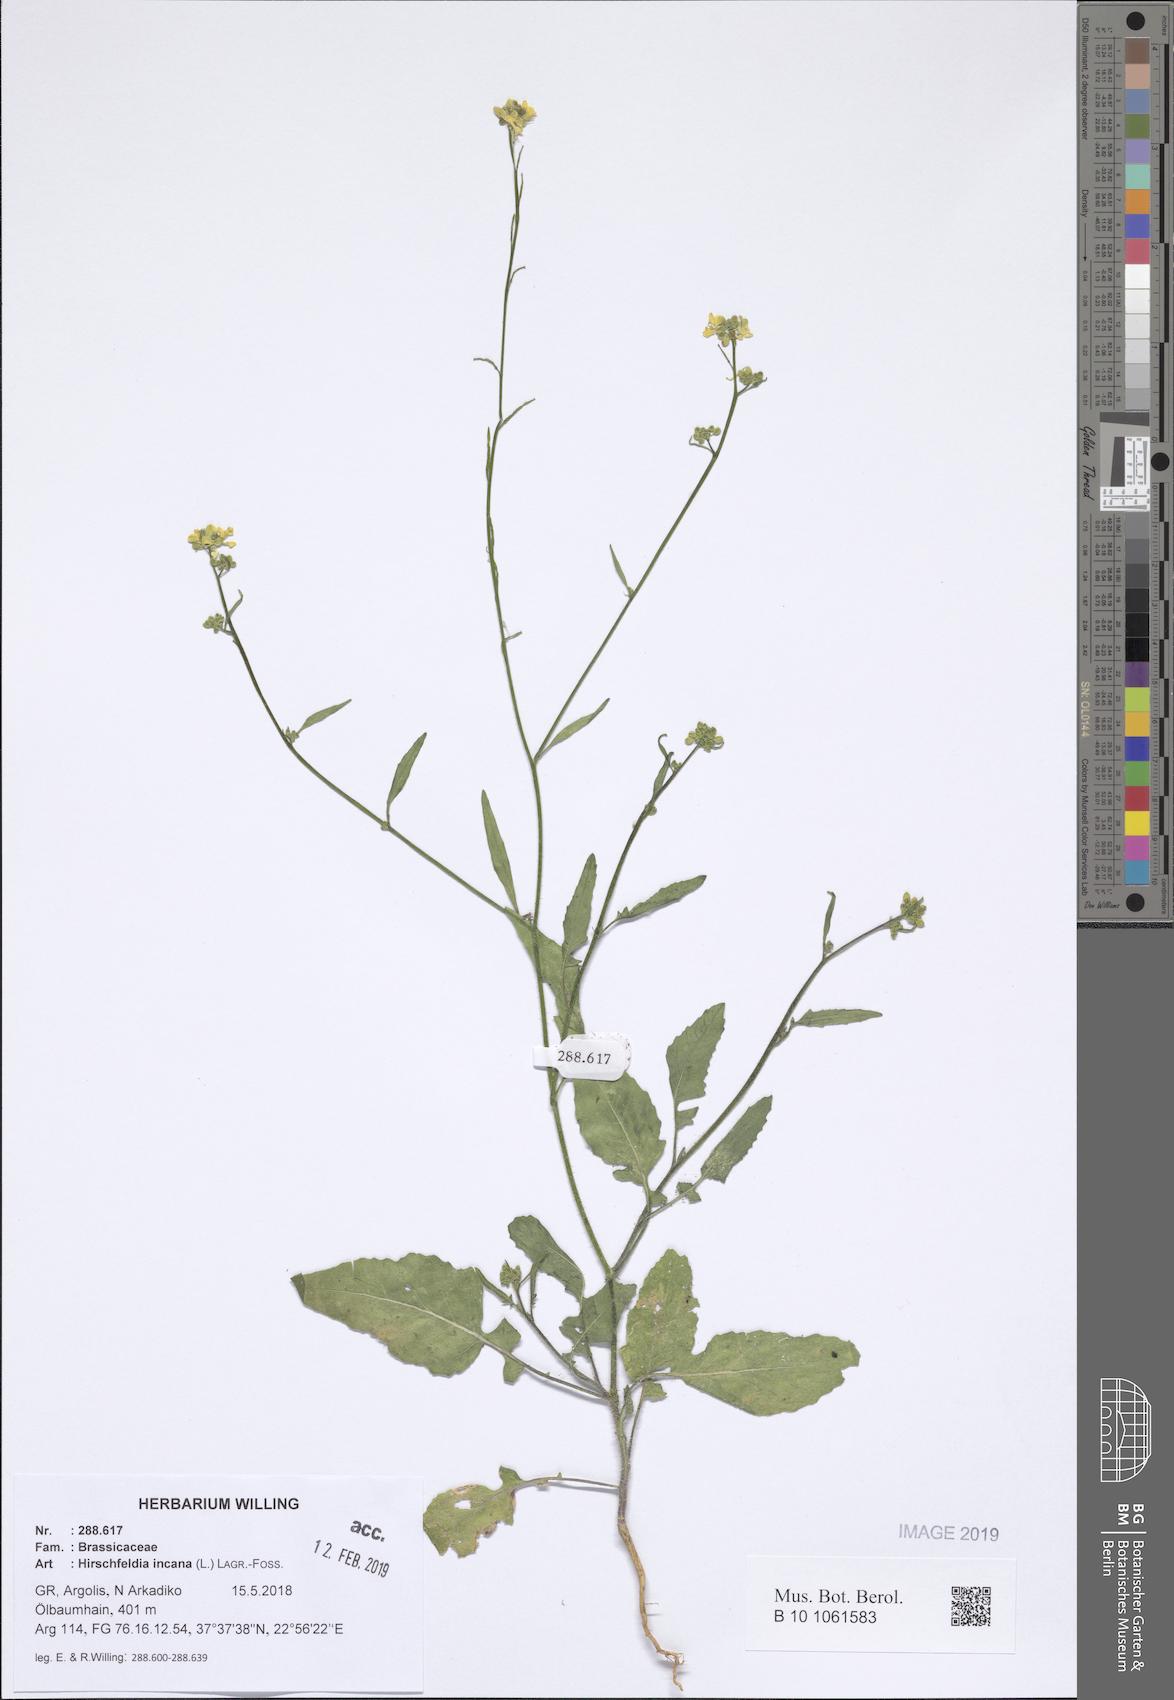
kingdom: Plantae
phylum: Tracheophyta
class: Magnoliopsida
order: Brassicales
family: Brassicaceae
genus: Hirschfeldia
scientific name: Hirschfeldia incana
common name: Hoary mustard
